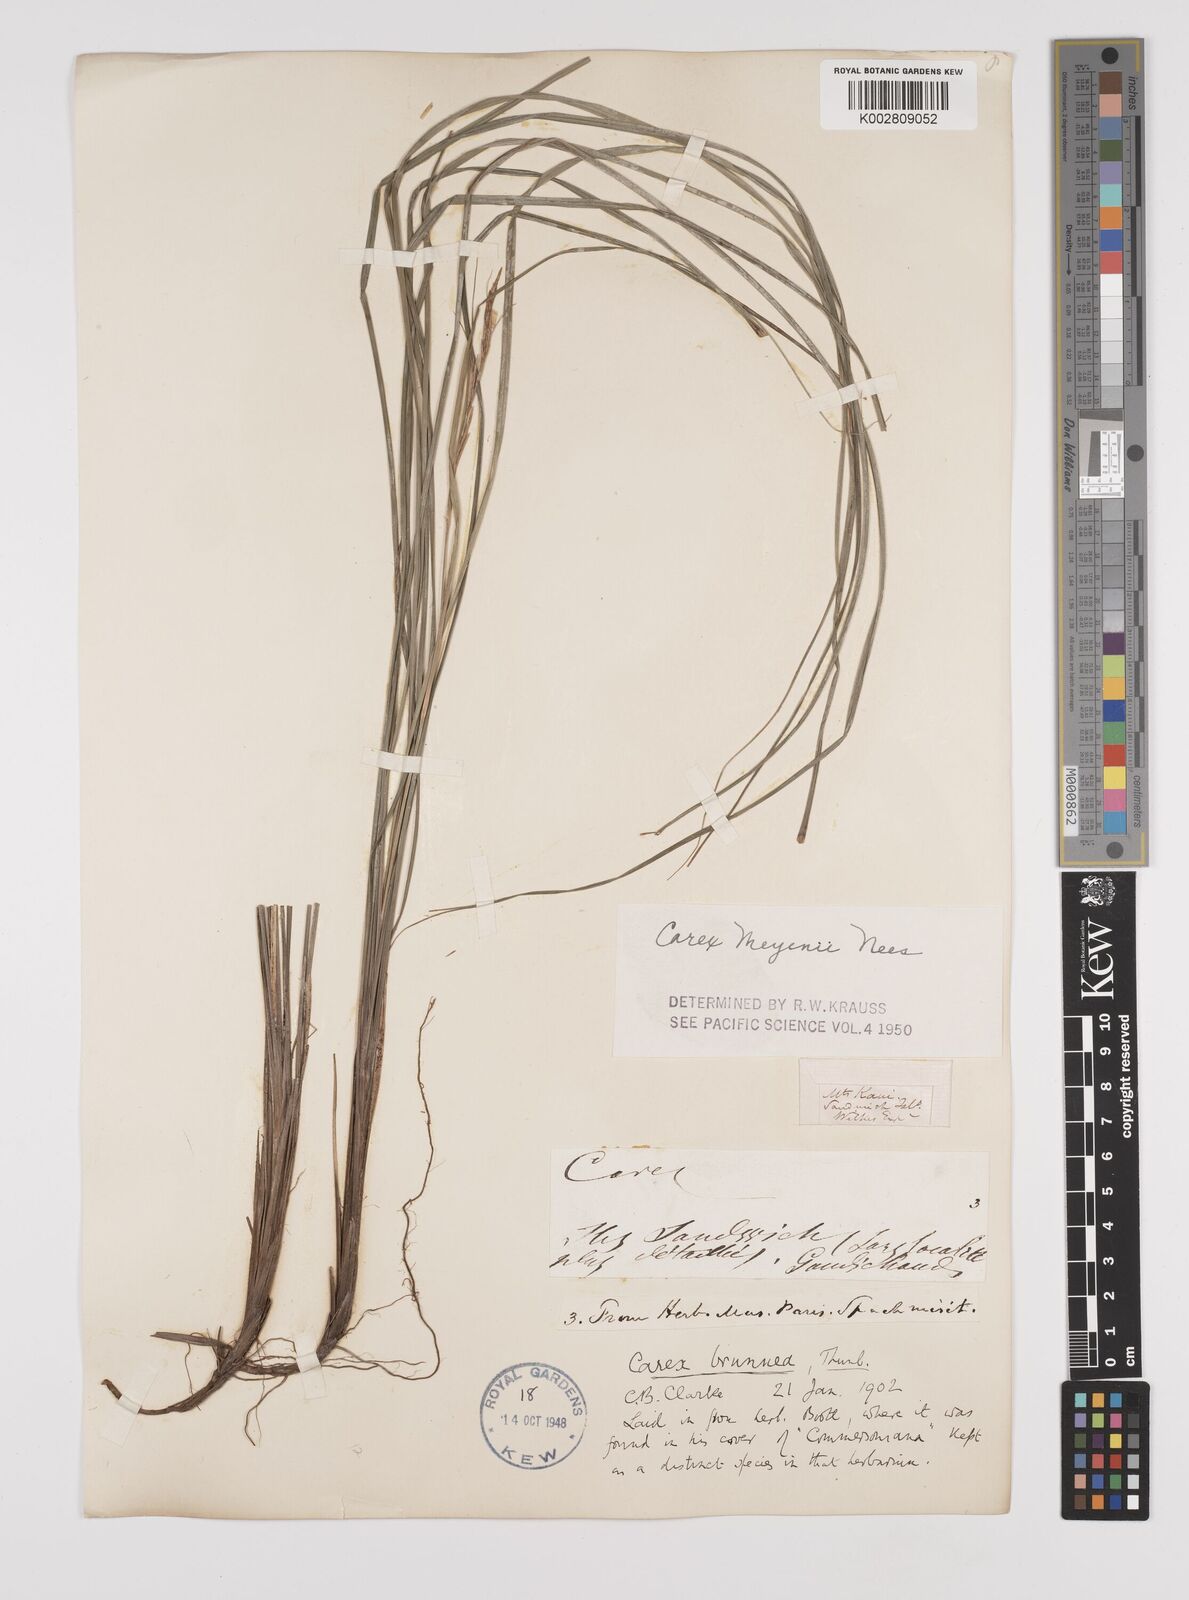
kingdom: Plantae
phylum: Tracheophyta
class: Liliopsida
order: Poales
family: Cyperaceae
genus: Carex
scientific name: Carex brunnea
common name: Greater brown sedge
